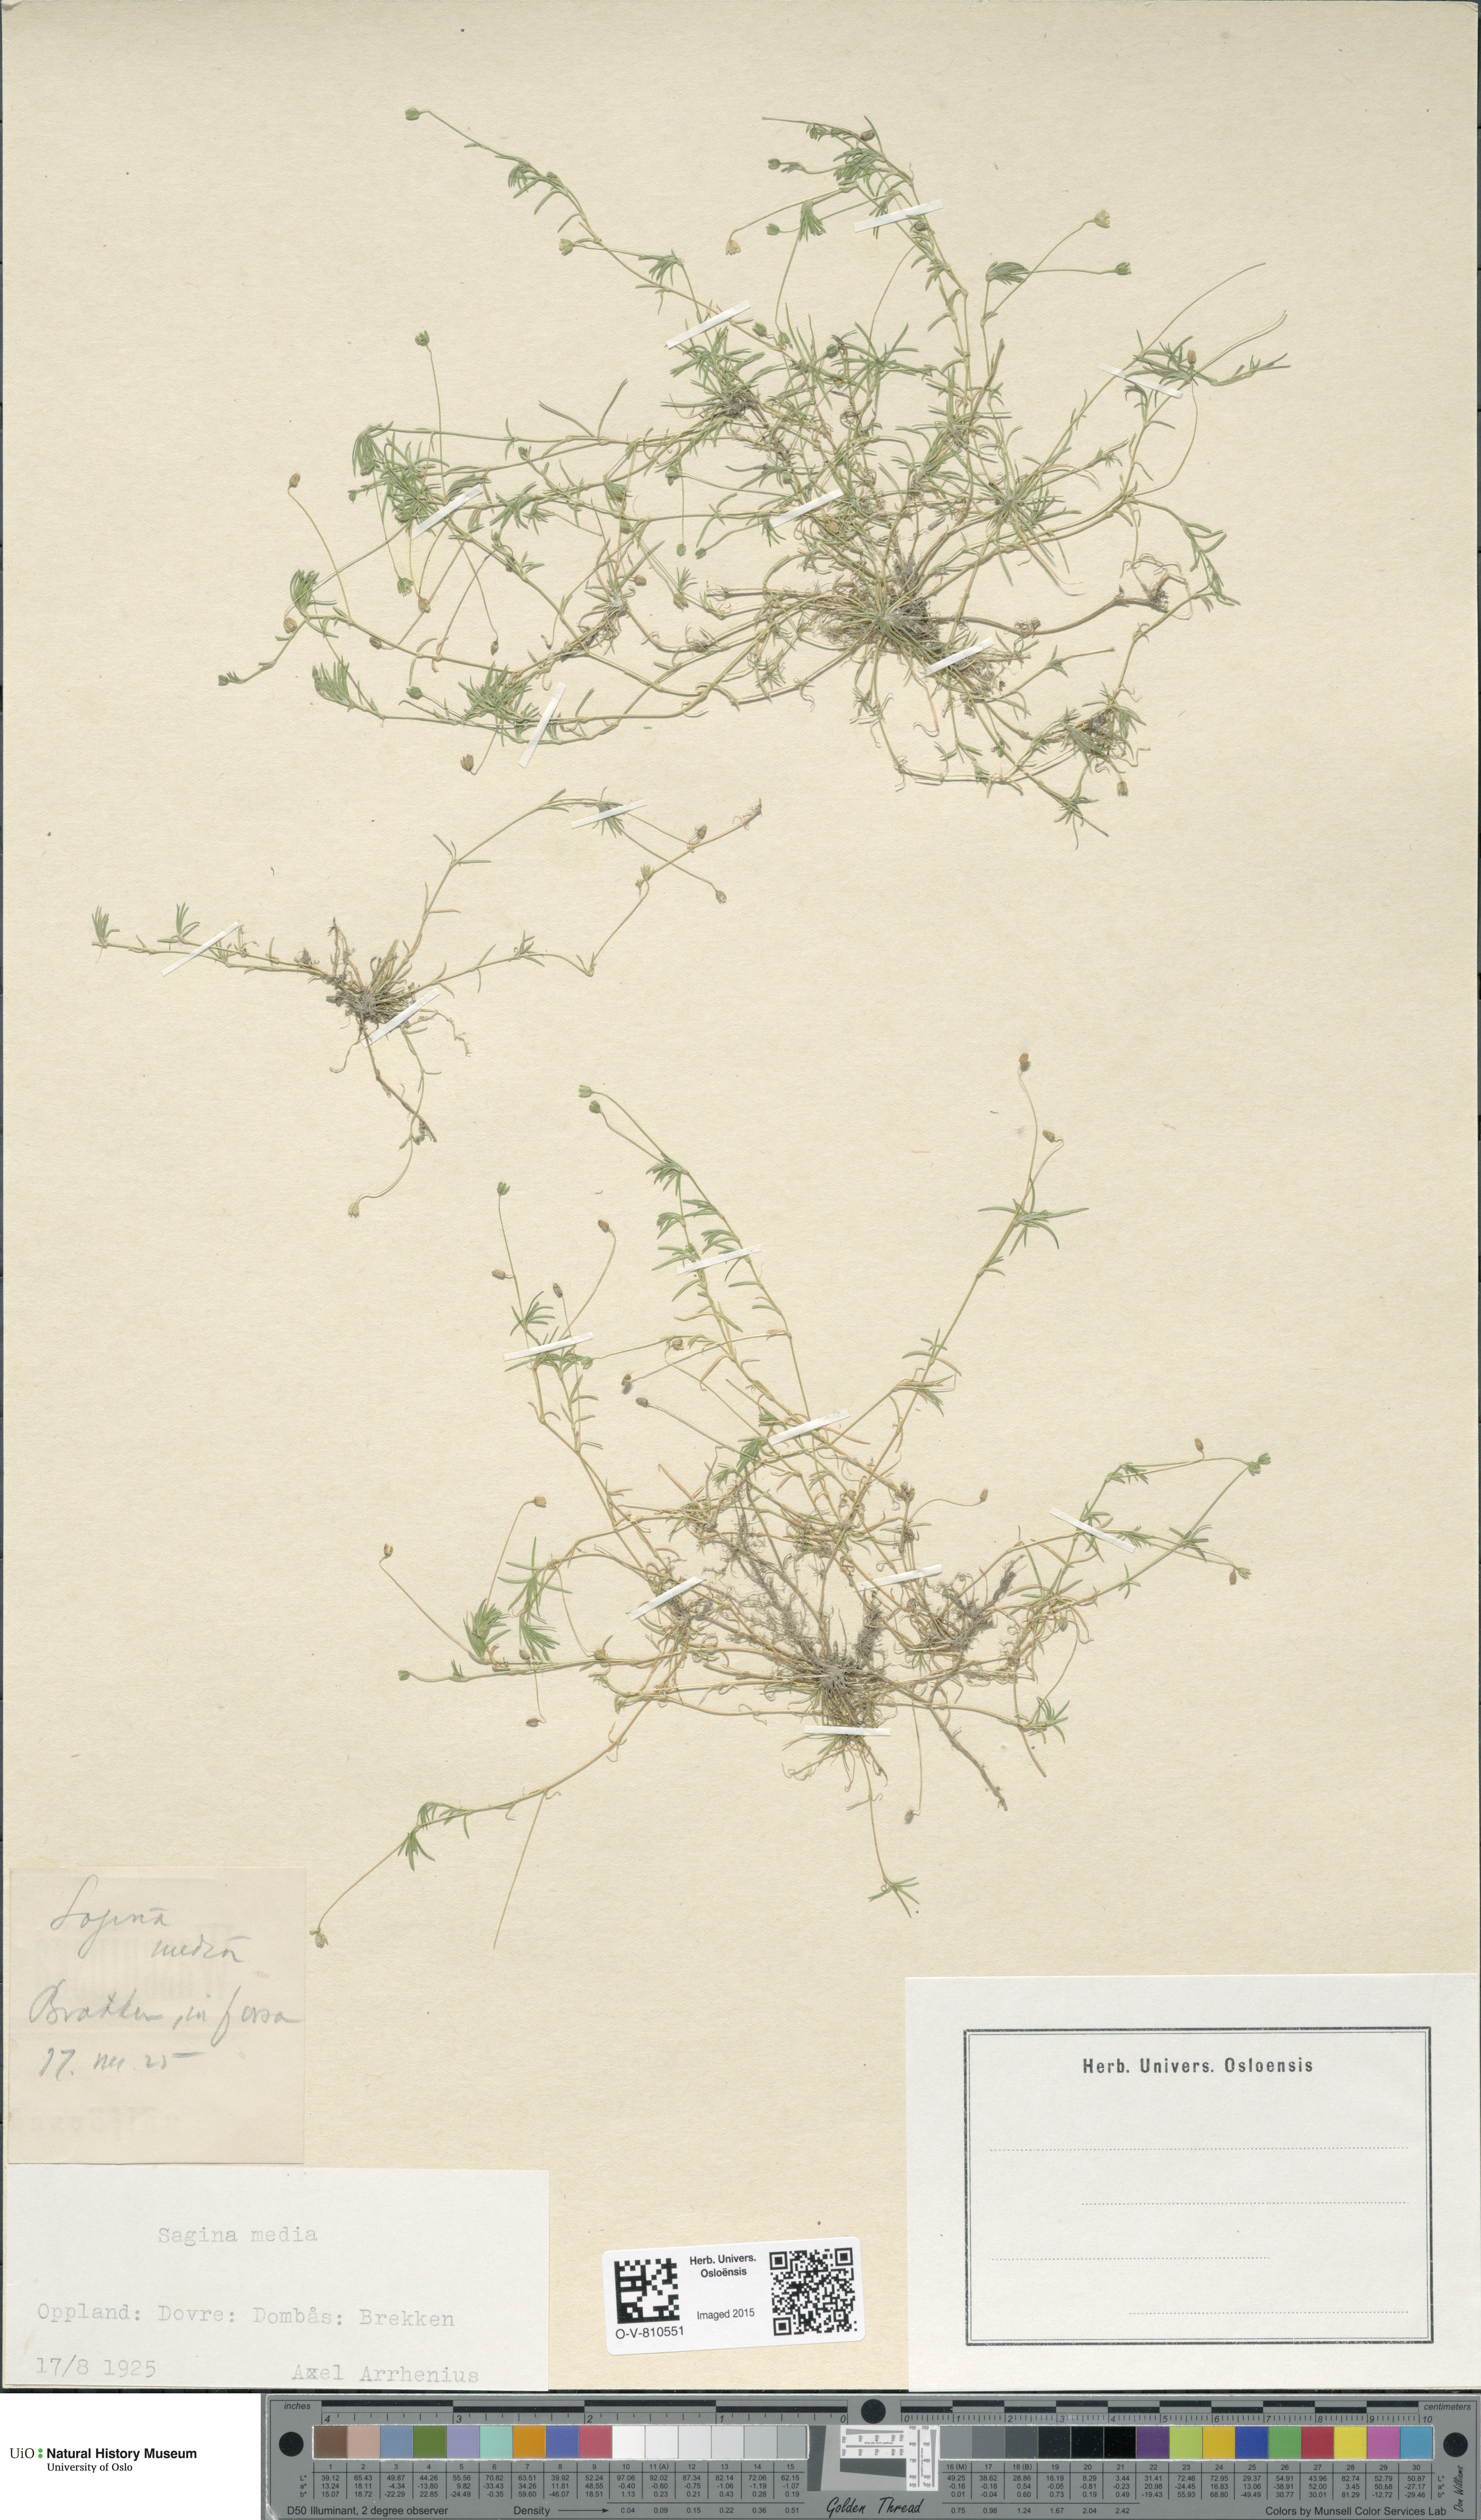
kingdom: Plantae
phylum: Tracheophyta
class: Magnoliopsida
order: Caryophyllales
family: Caryophyllaceae
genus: Sagina
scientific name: Sagina media
